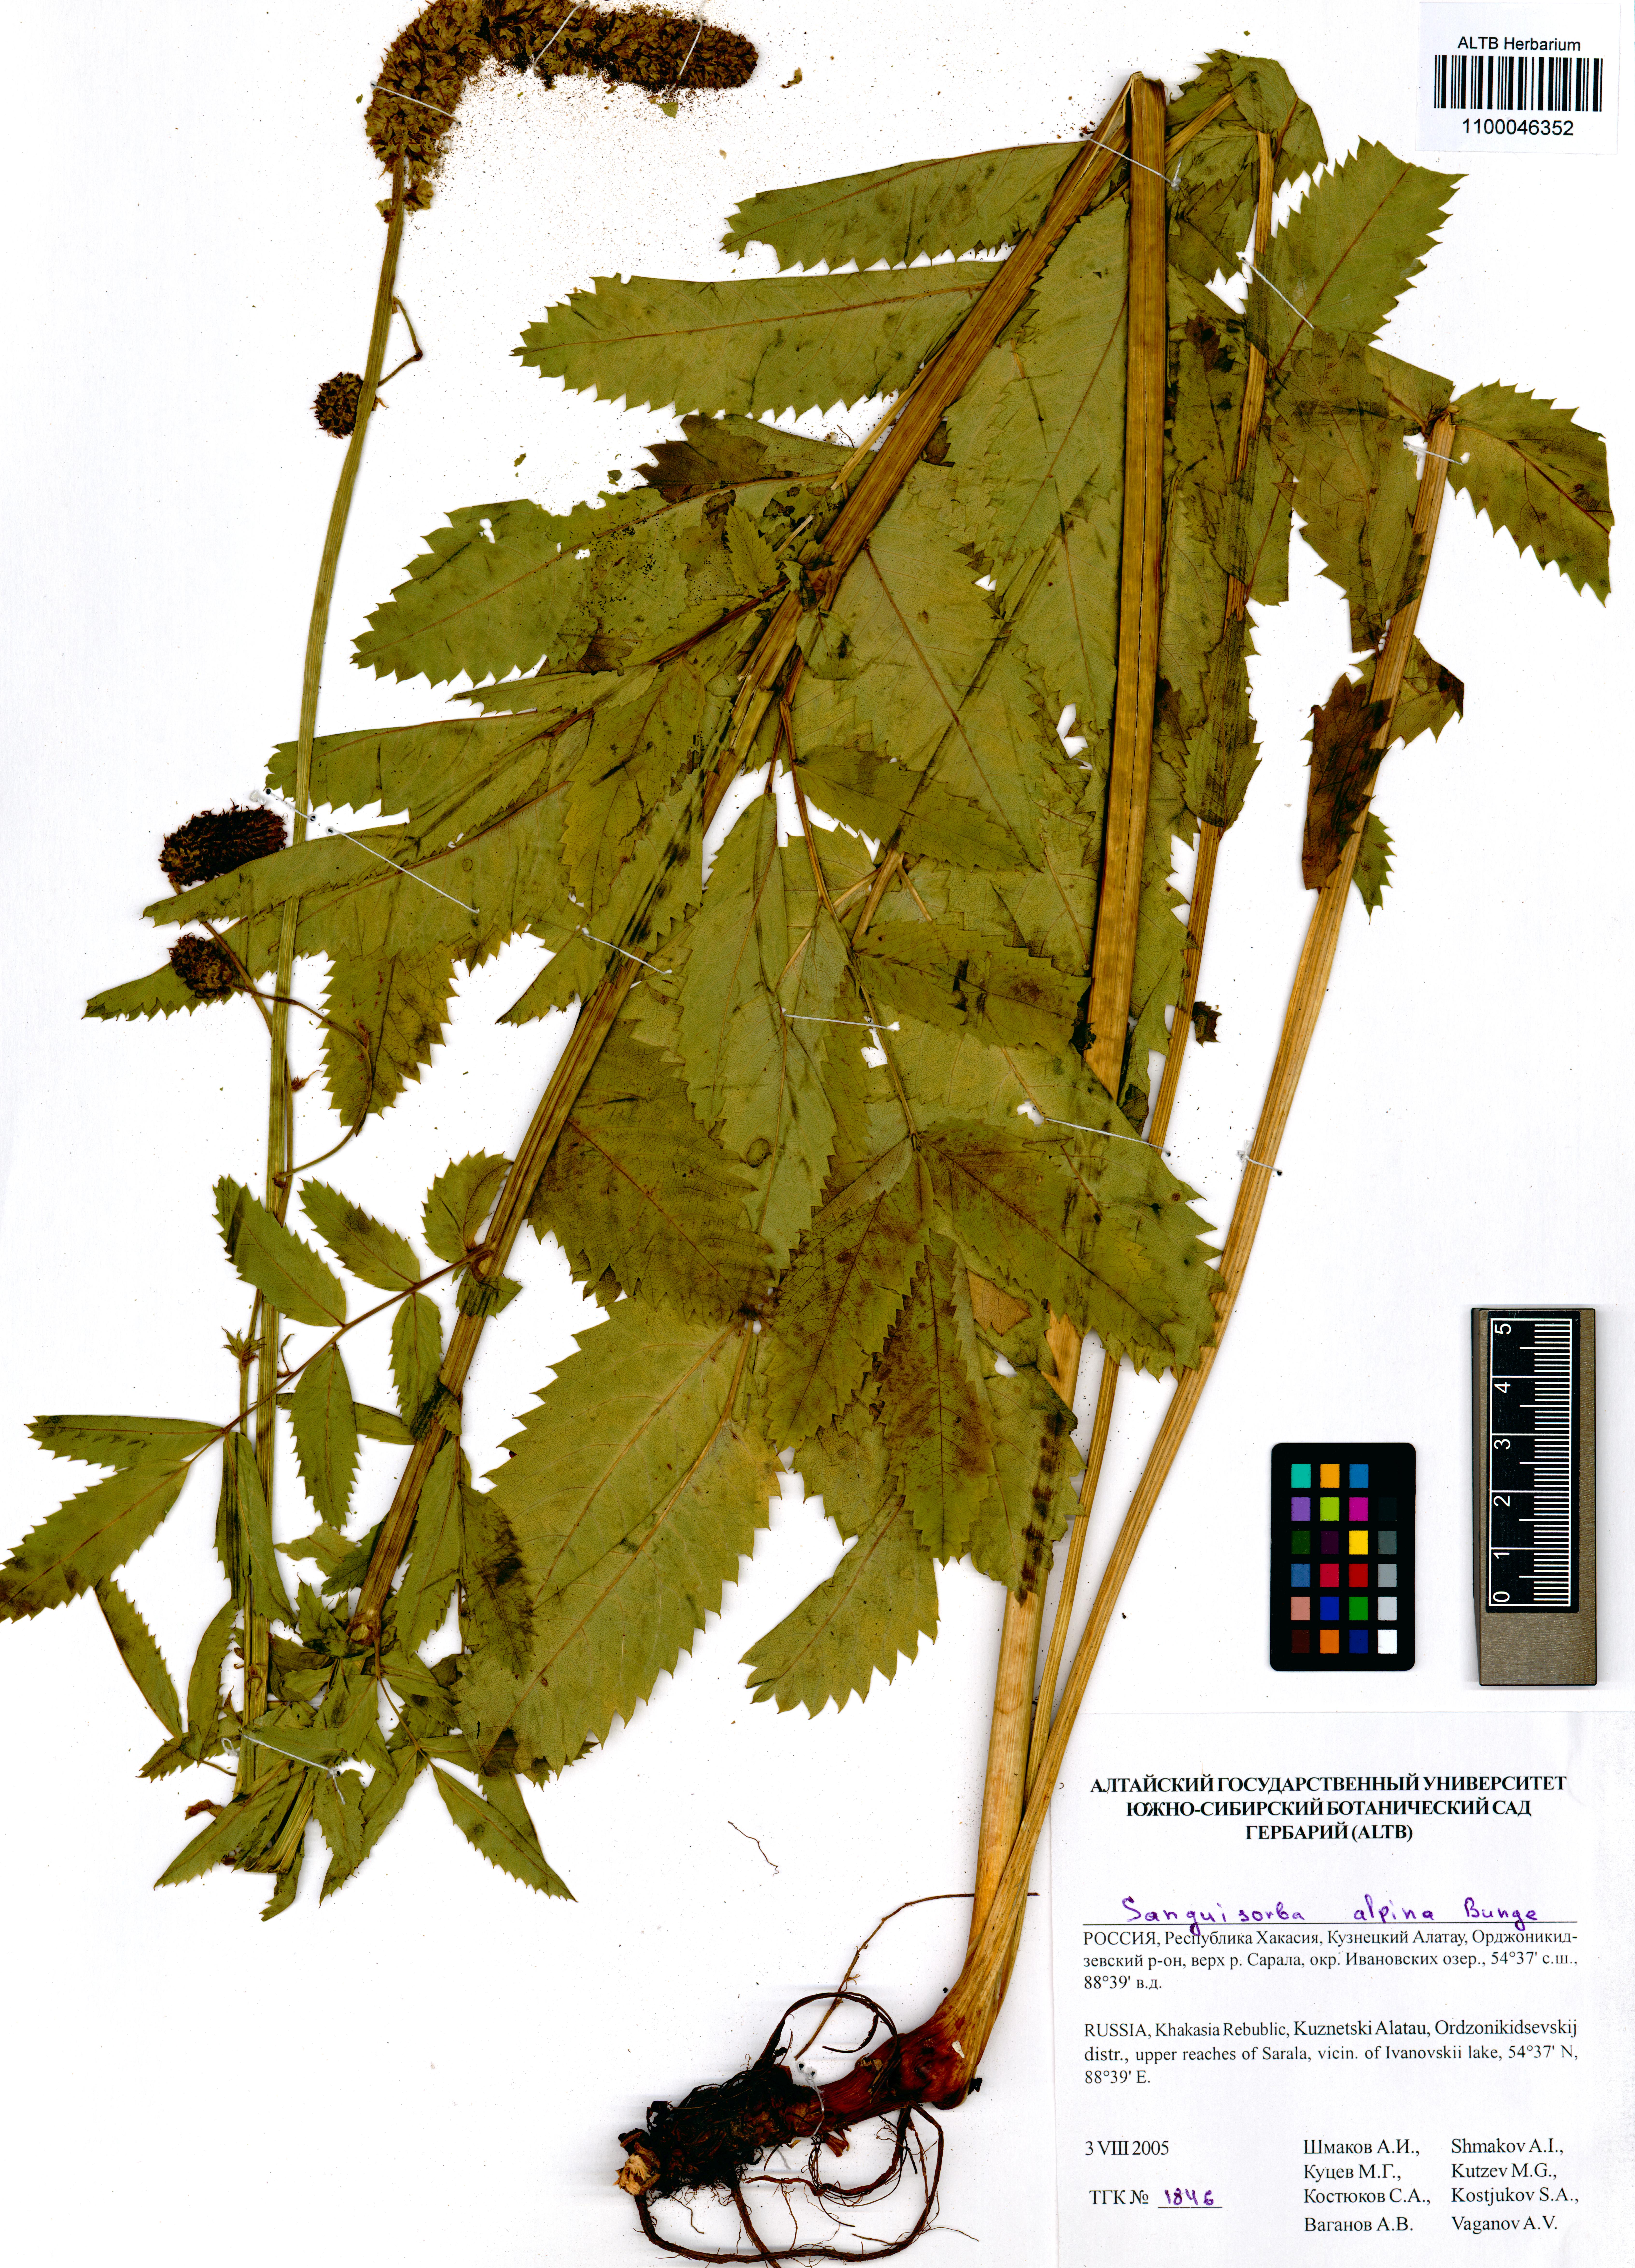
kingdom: Plantae
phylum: Tracheophyta
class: Magnoliopsida
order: Rosales
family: Rosaceae
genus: Sanguisorba
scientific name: Sanguisorba alpina
